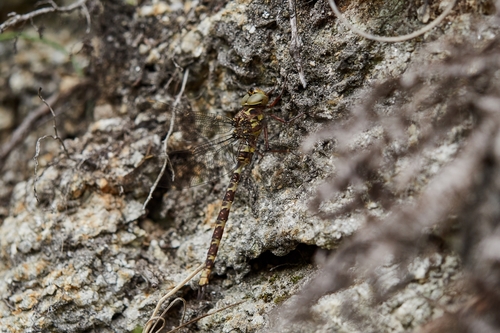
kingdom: Animalia
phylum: Arthropoda
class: Insecta
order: Odonata
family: Aeshnidae
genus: Boyeria
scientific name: Boyeria irene
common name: Western spectre
